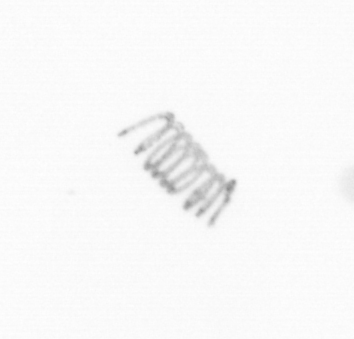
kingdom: Chromista
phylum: Ochrophyta
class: Bacillariophyceae
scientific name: Bacillariophyceae
